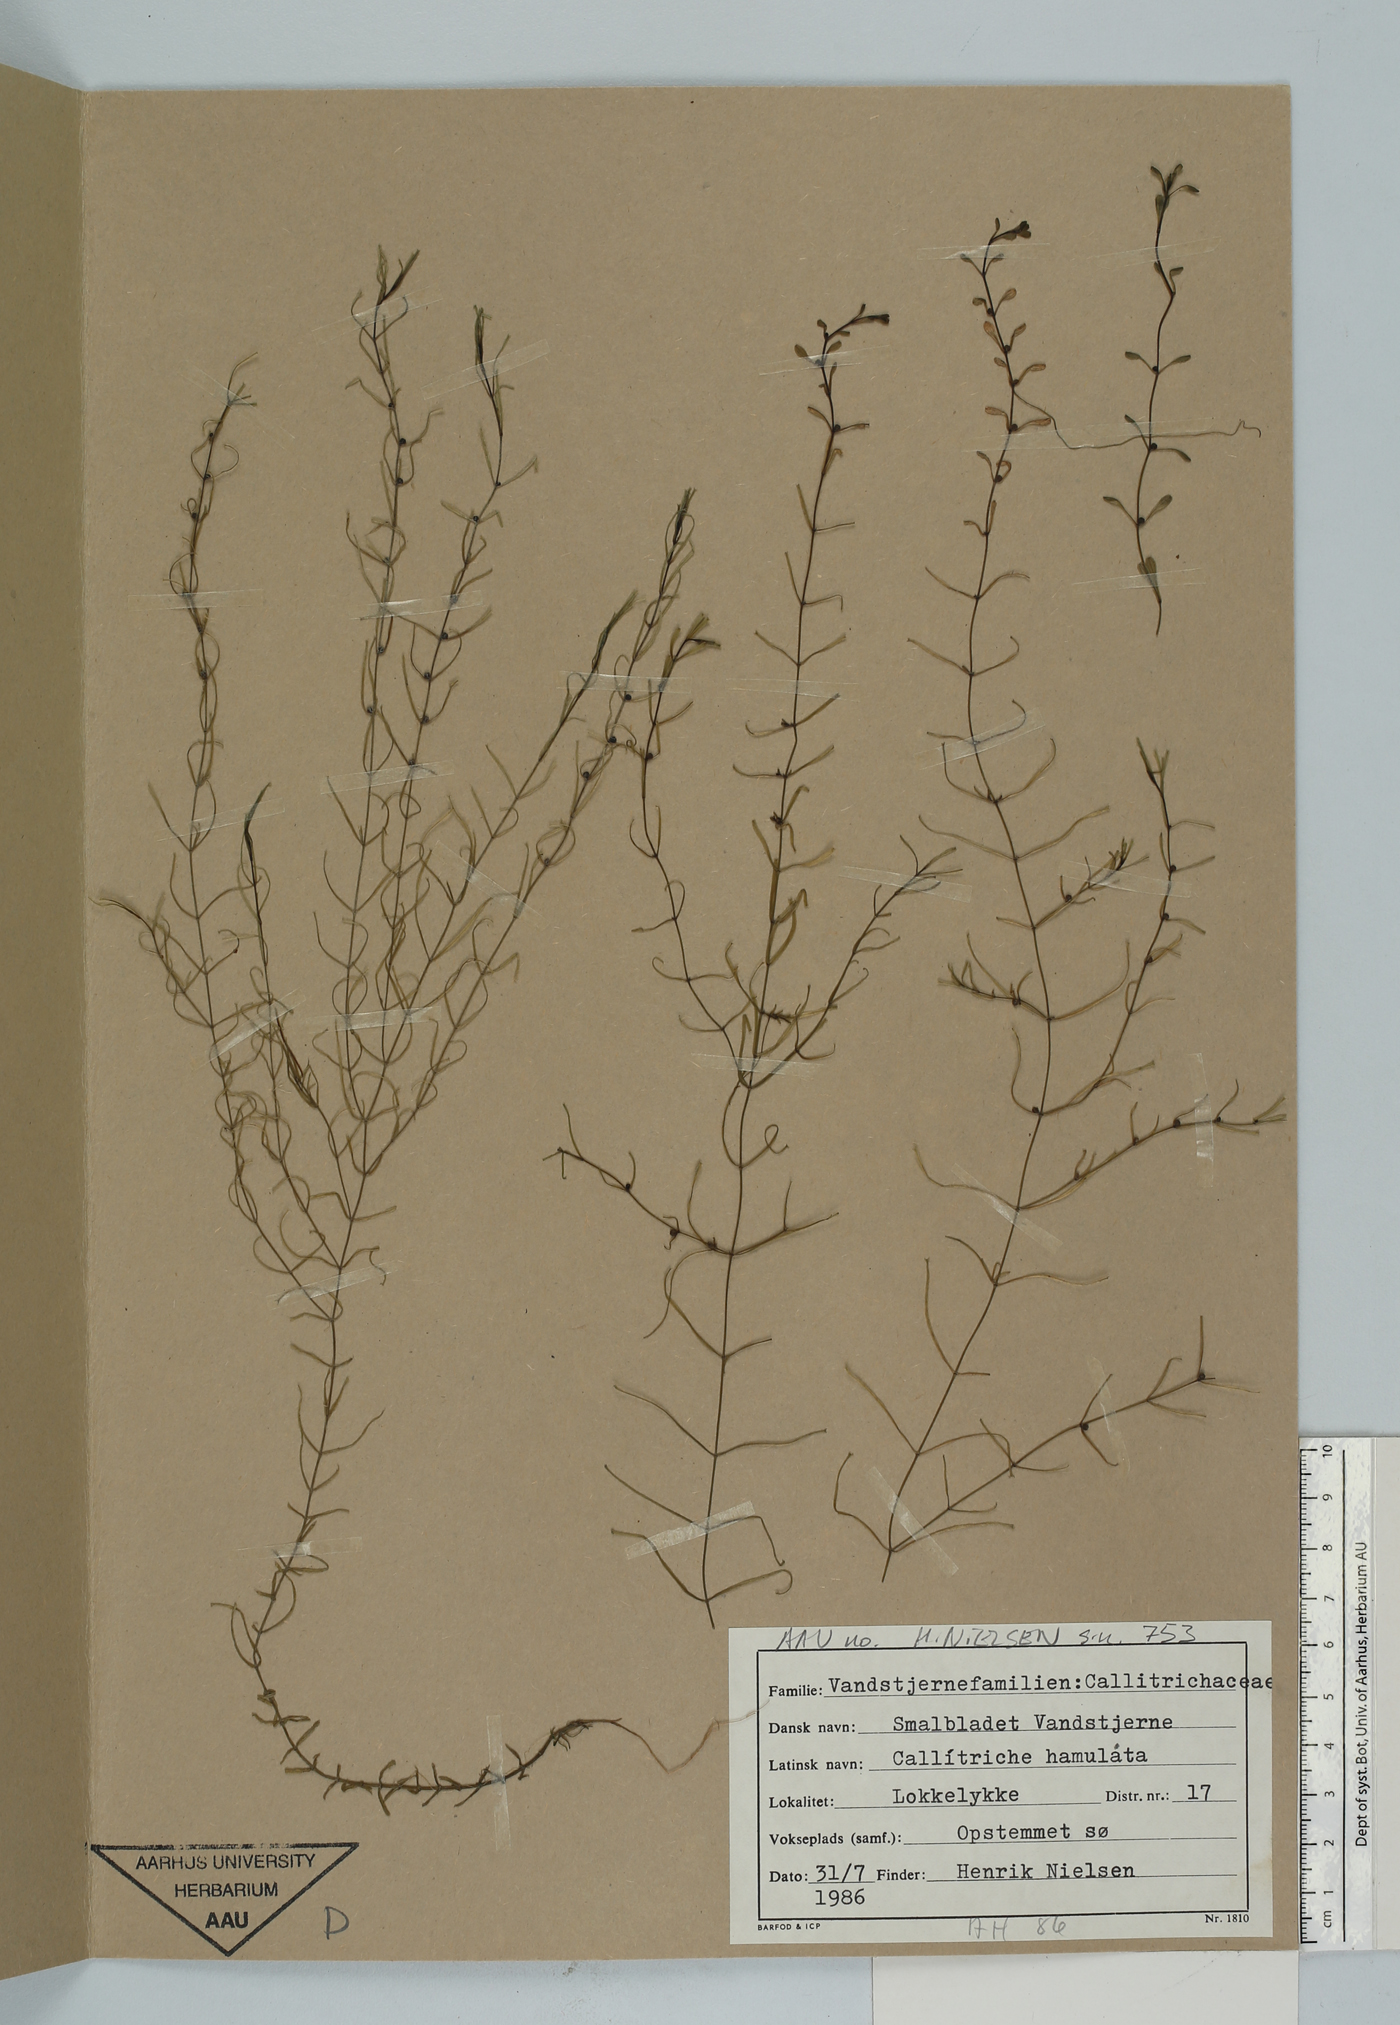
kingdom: Plantae
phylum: Tracheophyta
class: Magnoliopsida
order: Lamiales
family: Plantaginaceae
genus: Callitriche
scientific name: Callitriche hamulata
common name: Intermediate water-starwort
